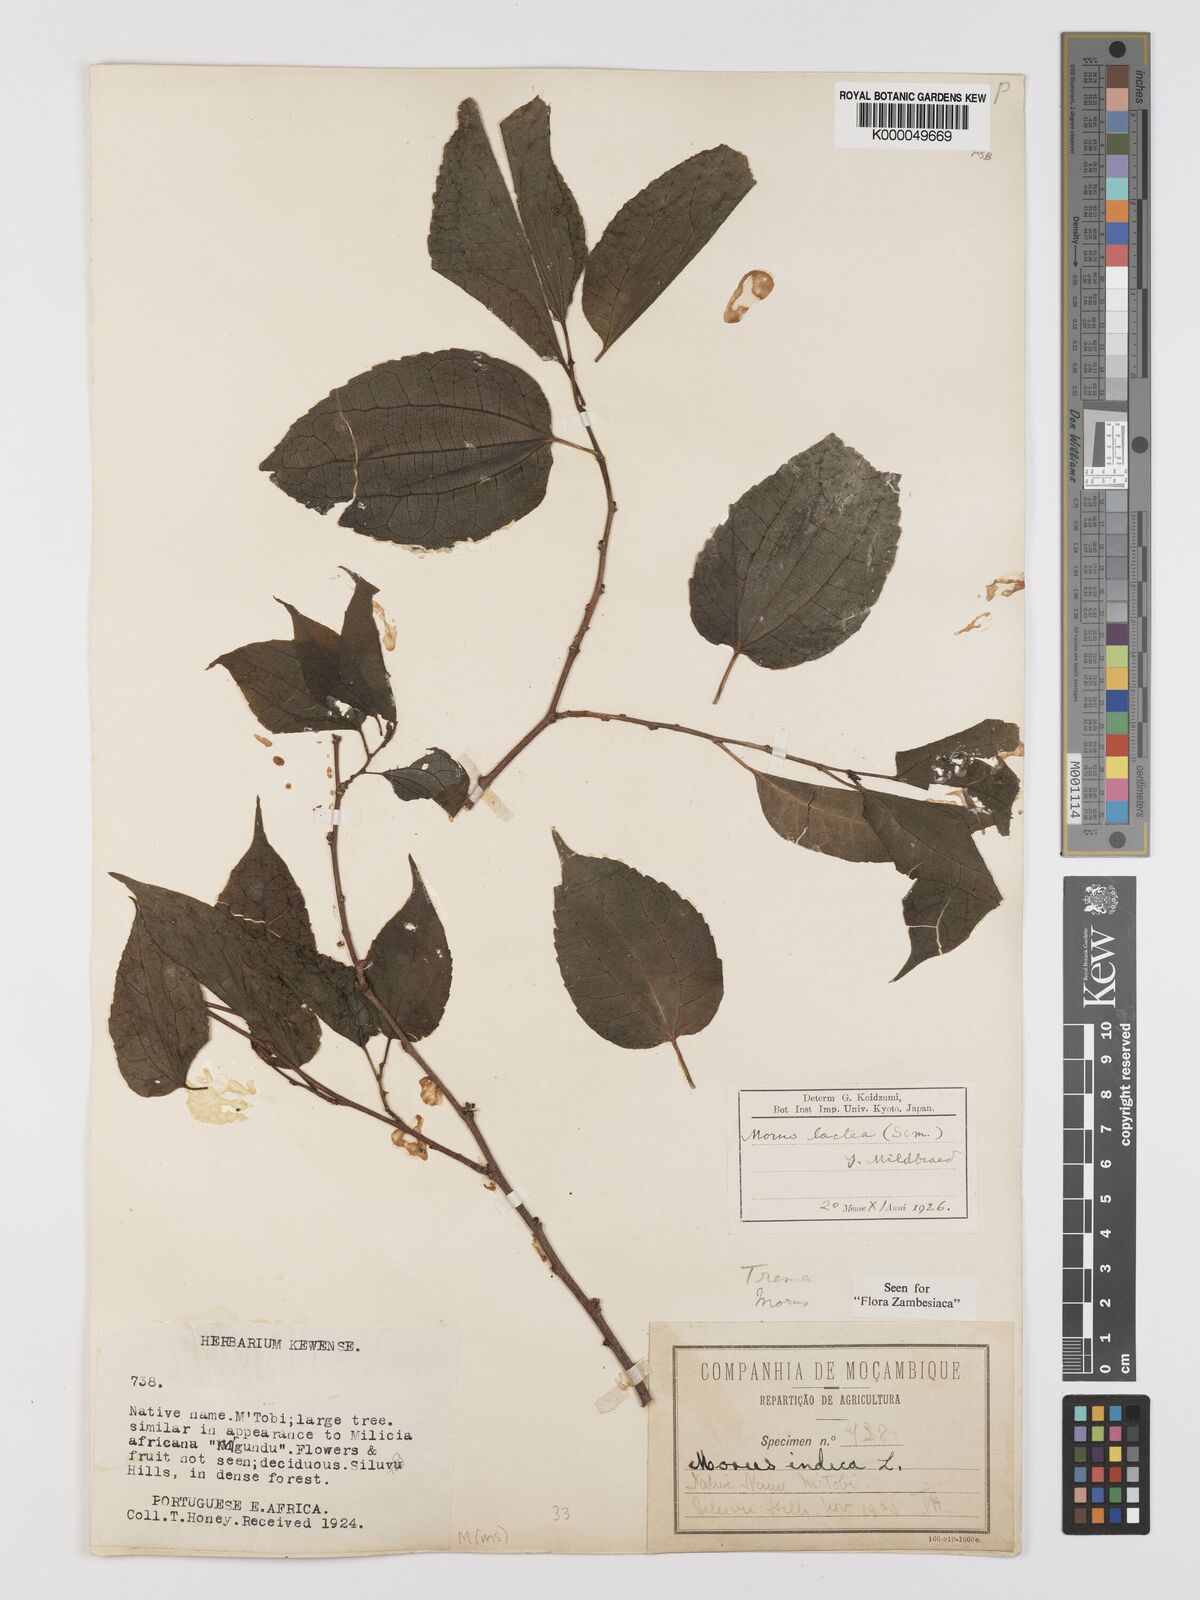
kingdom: Plantae
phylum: Tracheophyta
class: Magnoliopsida
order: Rosales
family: Moraceae
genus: Afromorus
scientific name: Afromorus mesozygia
